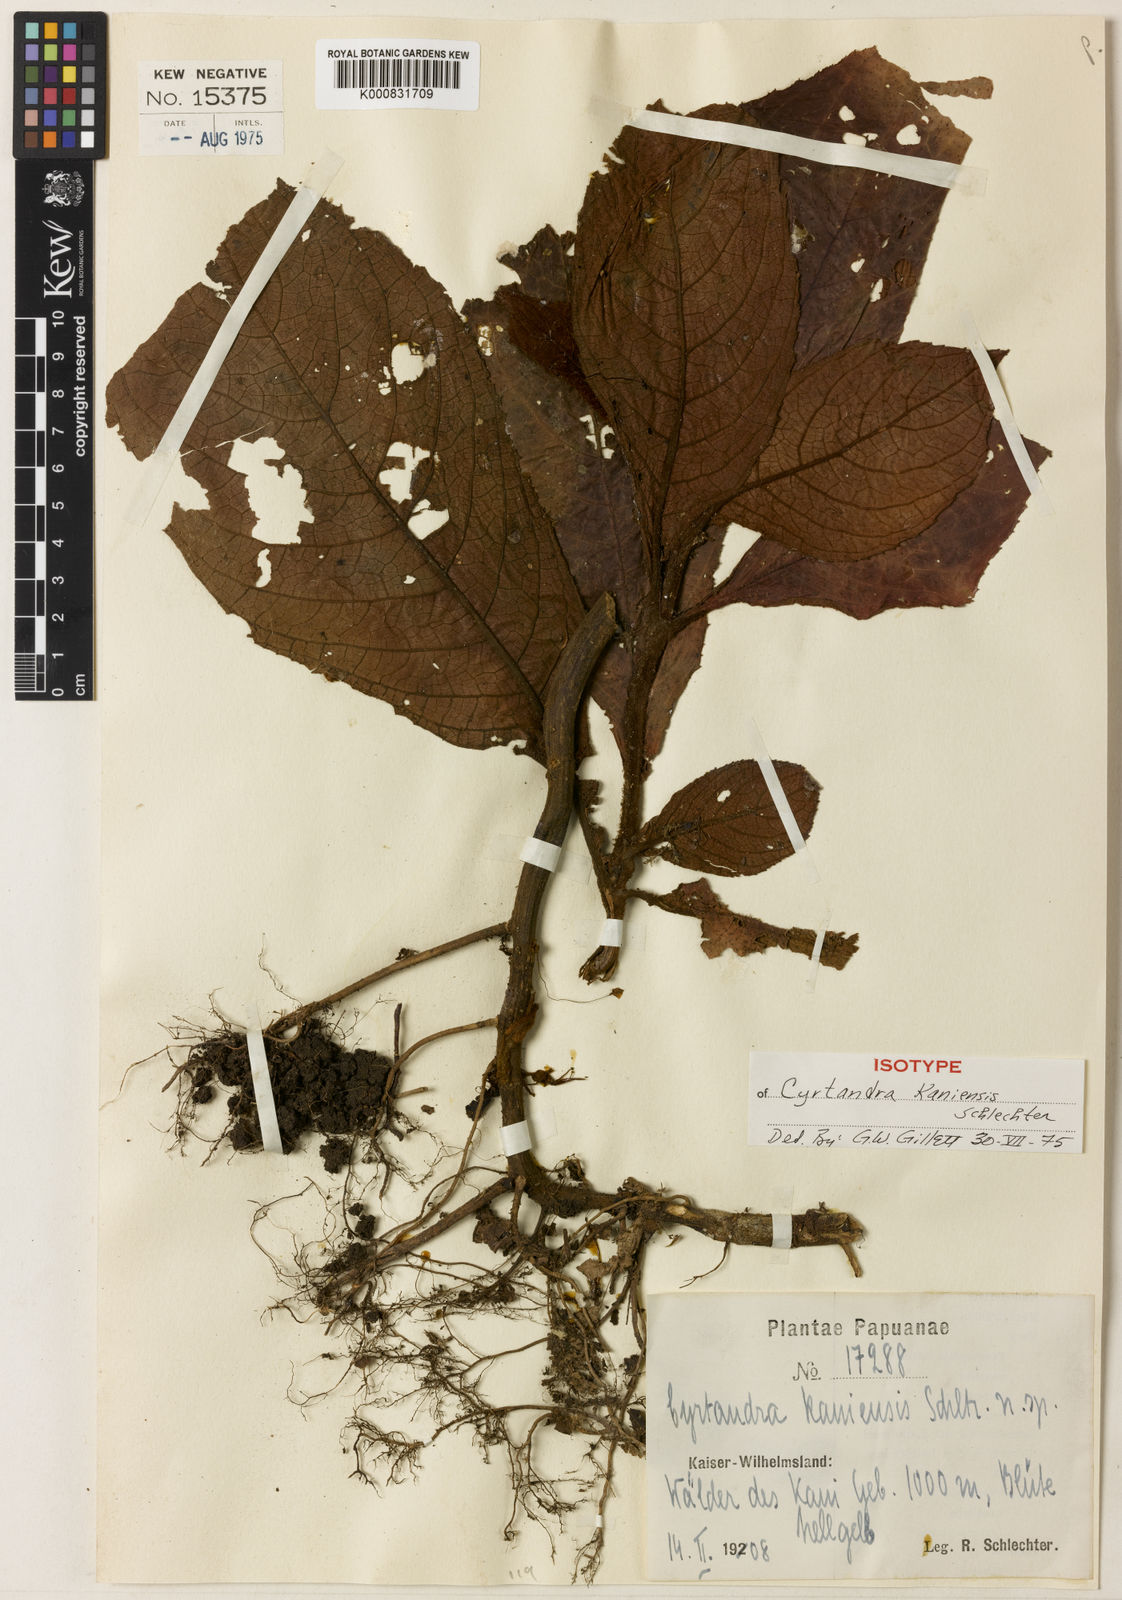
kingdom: Plantae
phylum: Tracheophyta
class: Magnoliopsida
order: Lamiales
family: Gesneriaceae
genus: Cyrtandra
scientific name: Cyrtandra kaniensis
